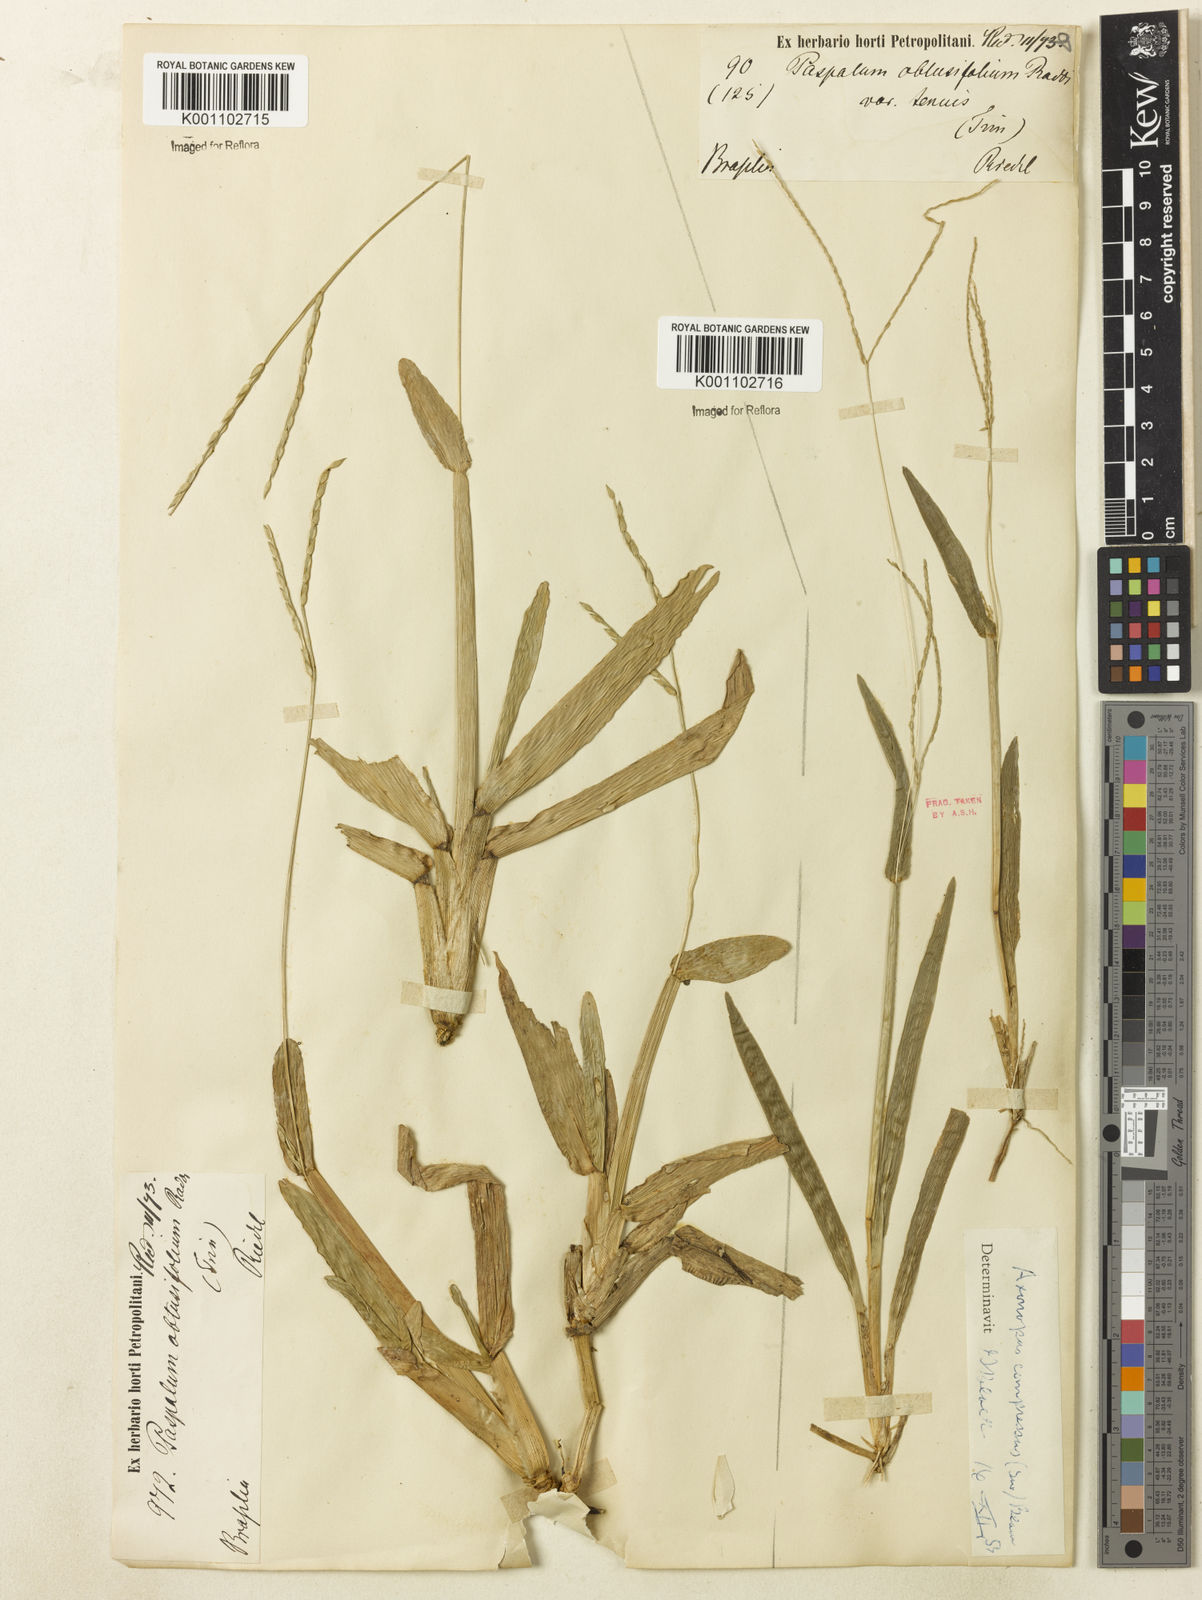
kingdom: Plantae
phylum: Tracheophyta
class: Liliopsida
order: Poales
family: Poaceae
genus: Axonopus
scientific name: Axonopus furcatus
